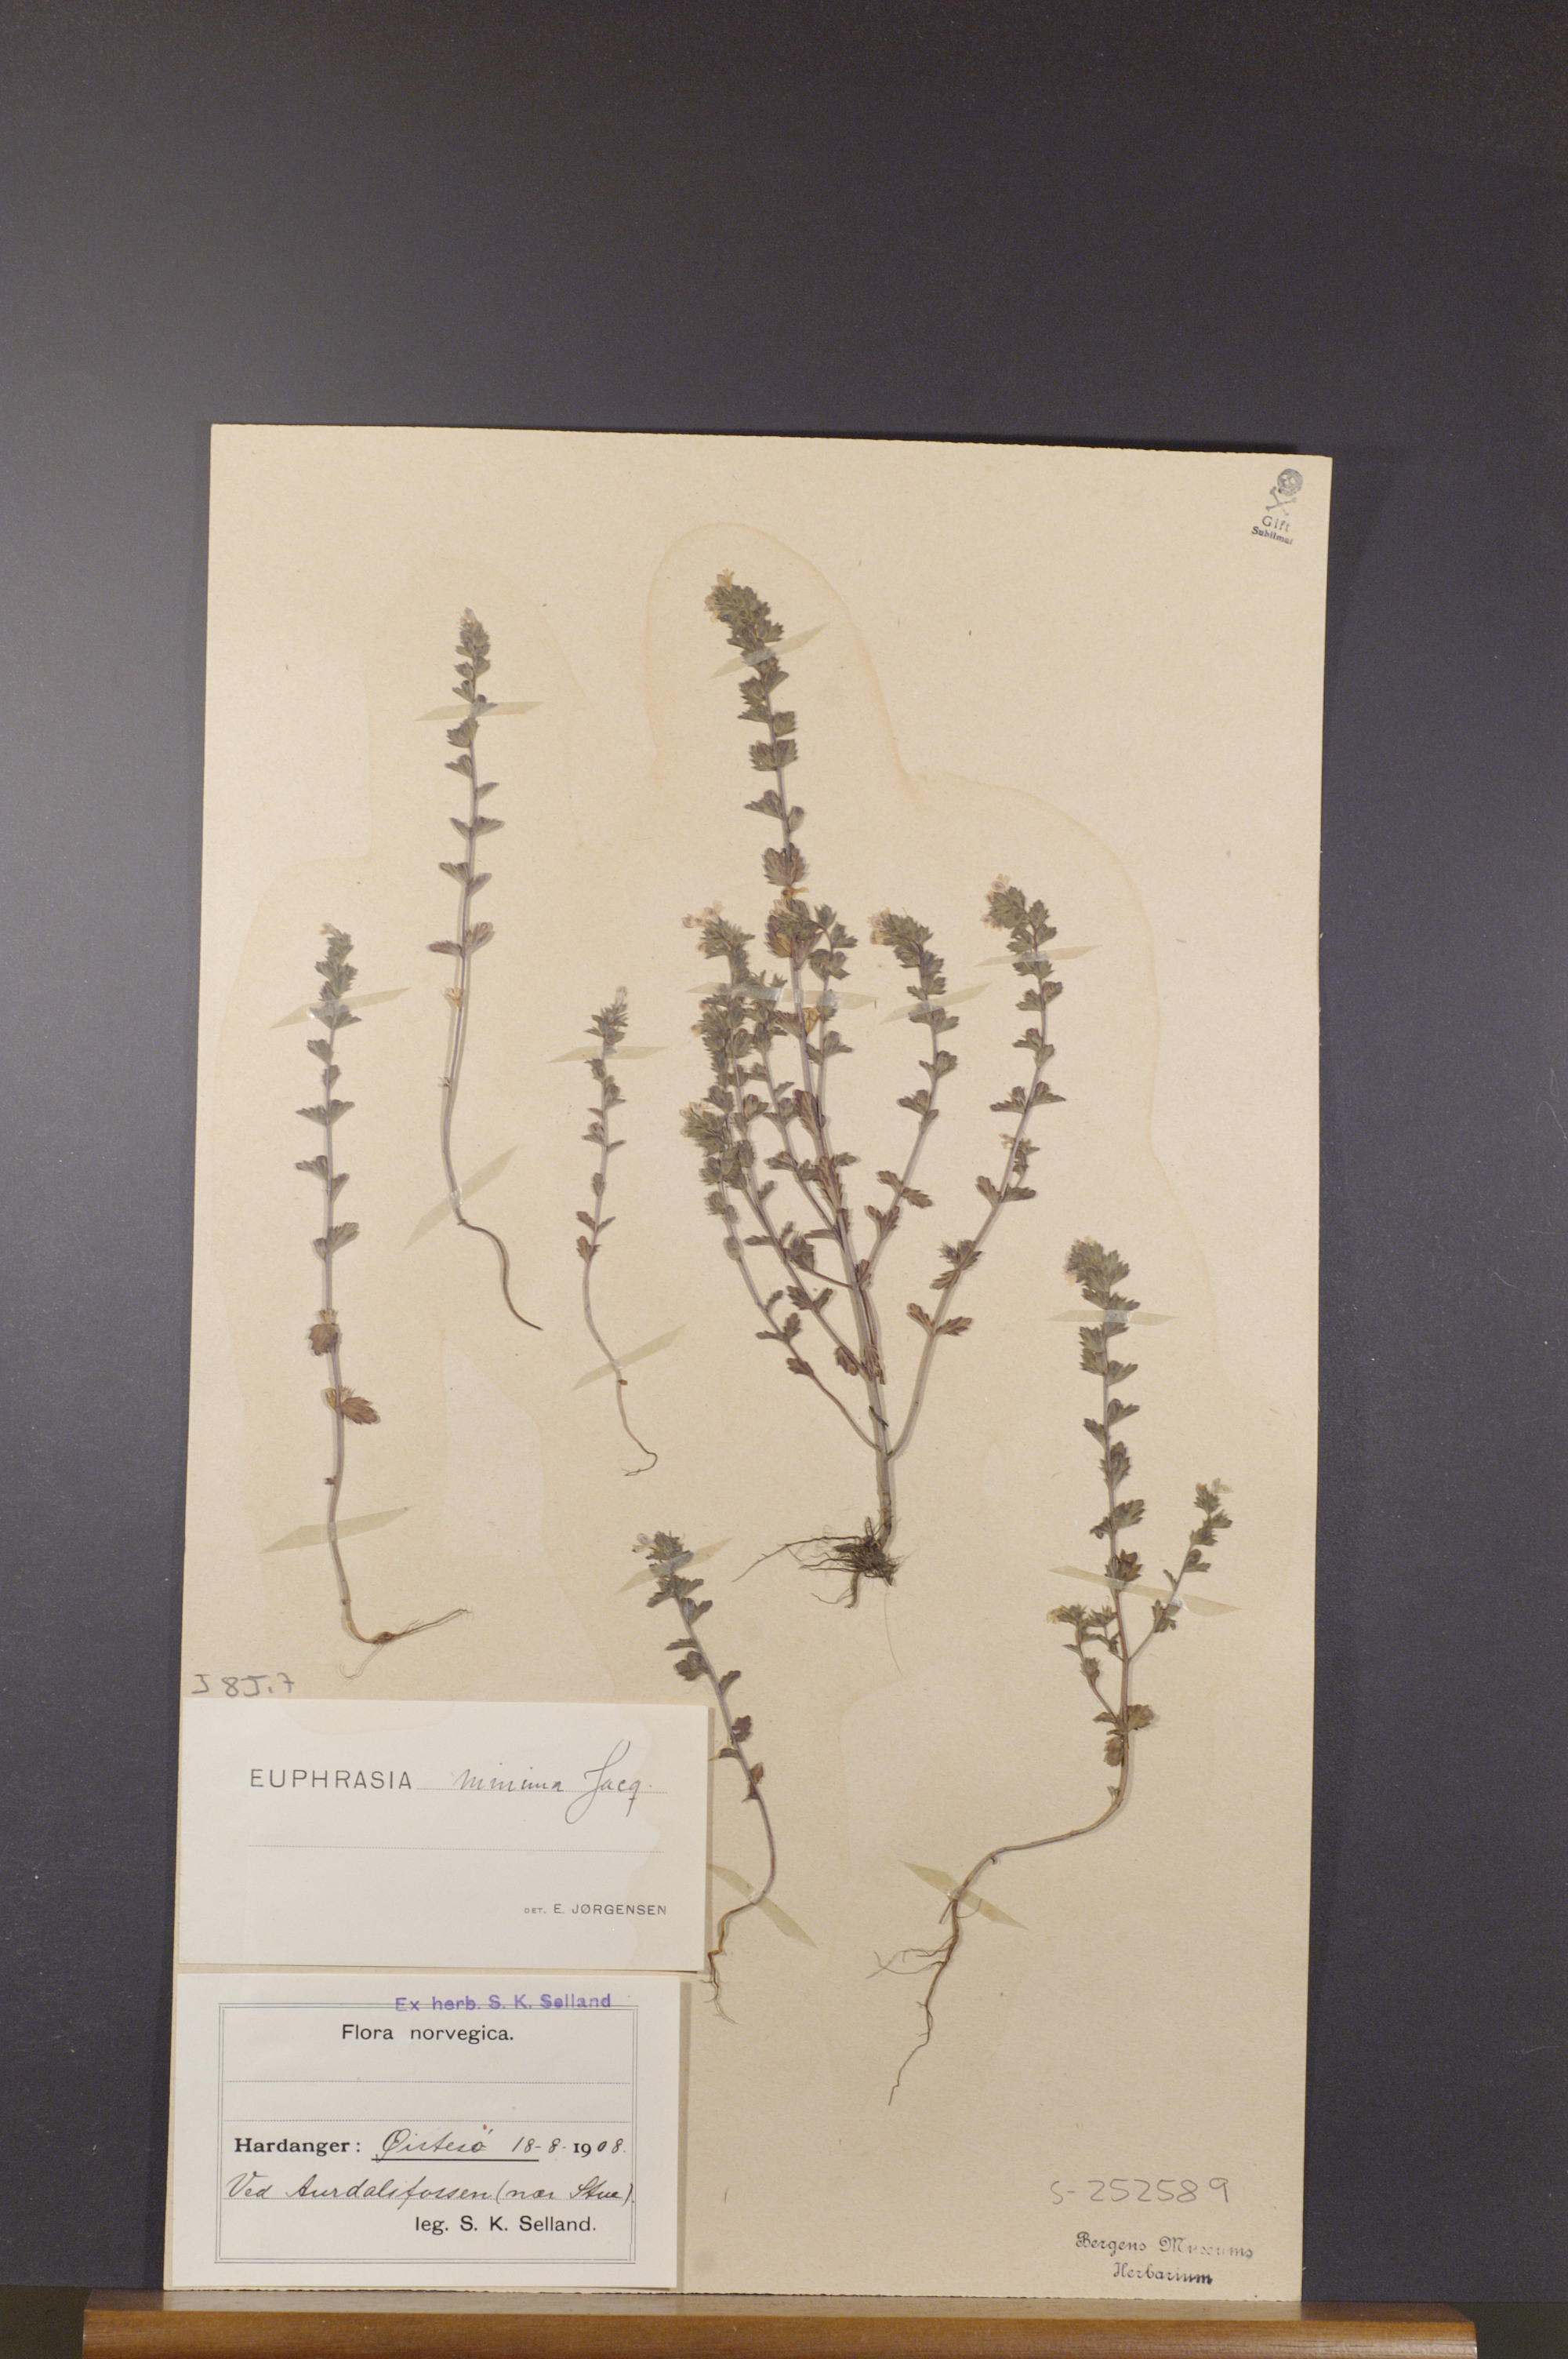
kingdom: Plantae
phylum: Tracheophyta
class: Magnoliopsida
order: Lamiales
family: Orobanchaceae
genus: Euphrasia
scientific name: Euphrasia minima
